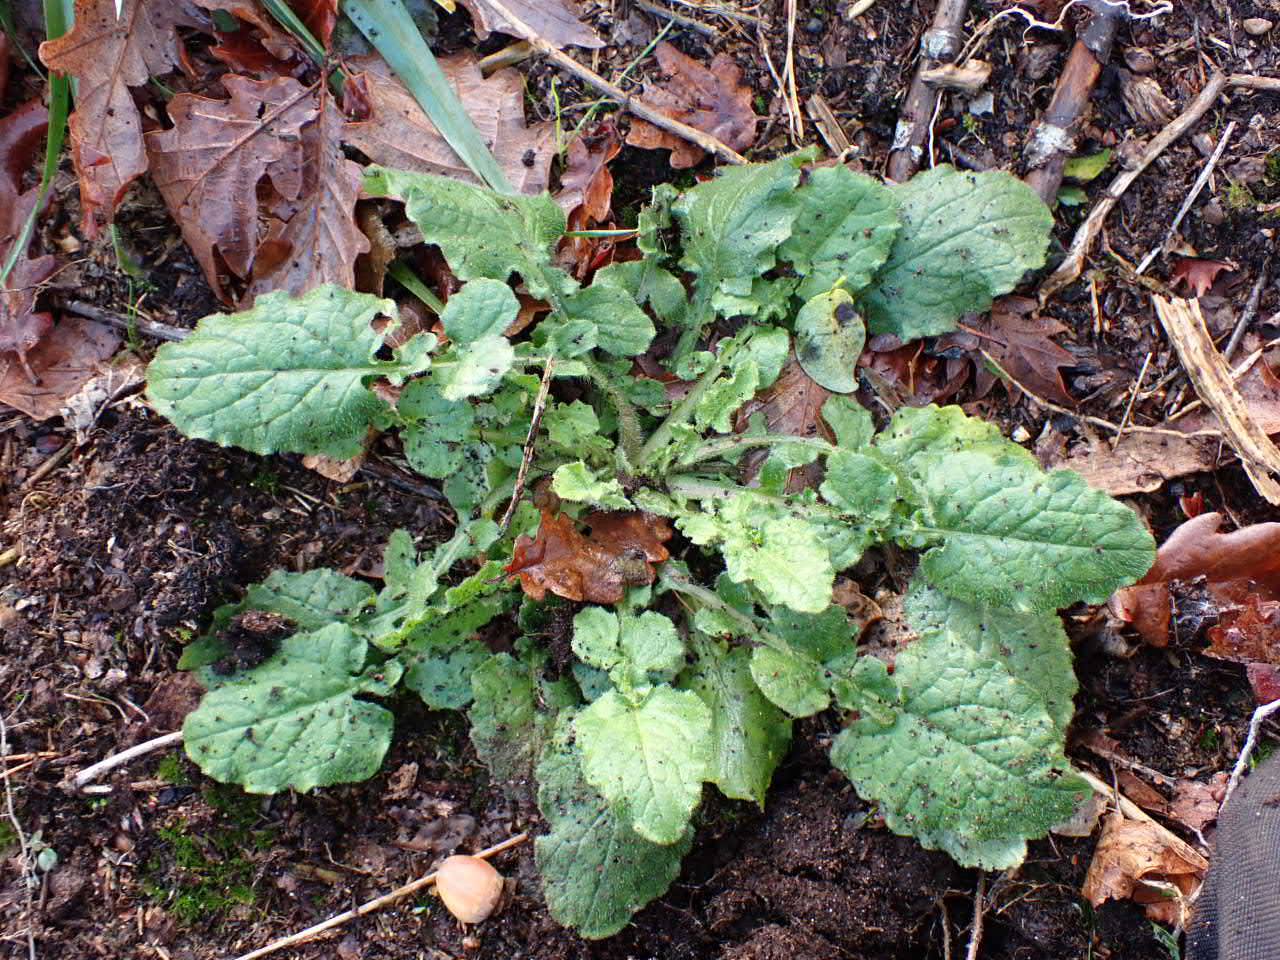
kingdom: Plantae
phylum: Tracheophyta
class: Magnoliopsida
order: Asterales
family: Asteraceae
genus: Lapsana
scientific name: Lapsana communis
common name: Haremad
